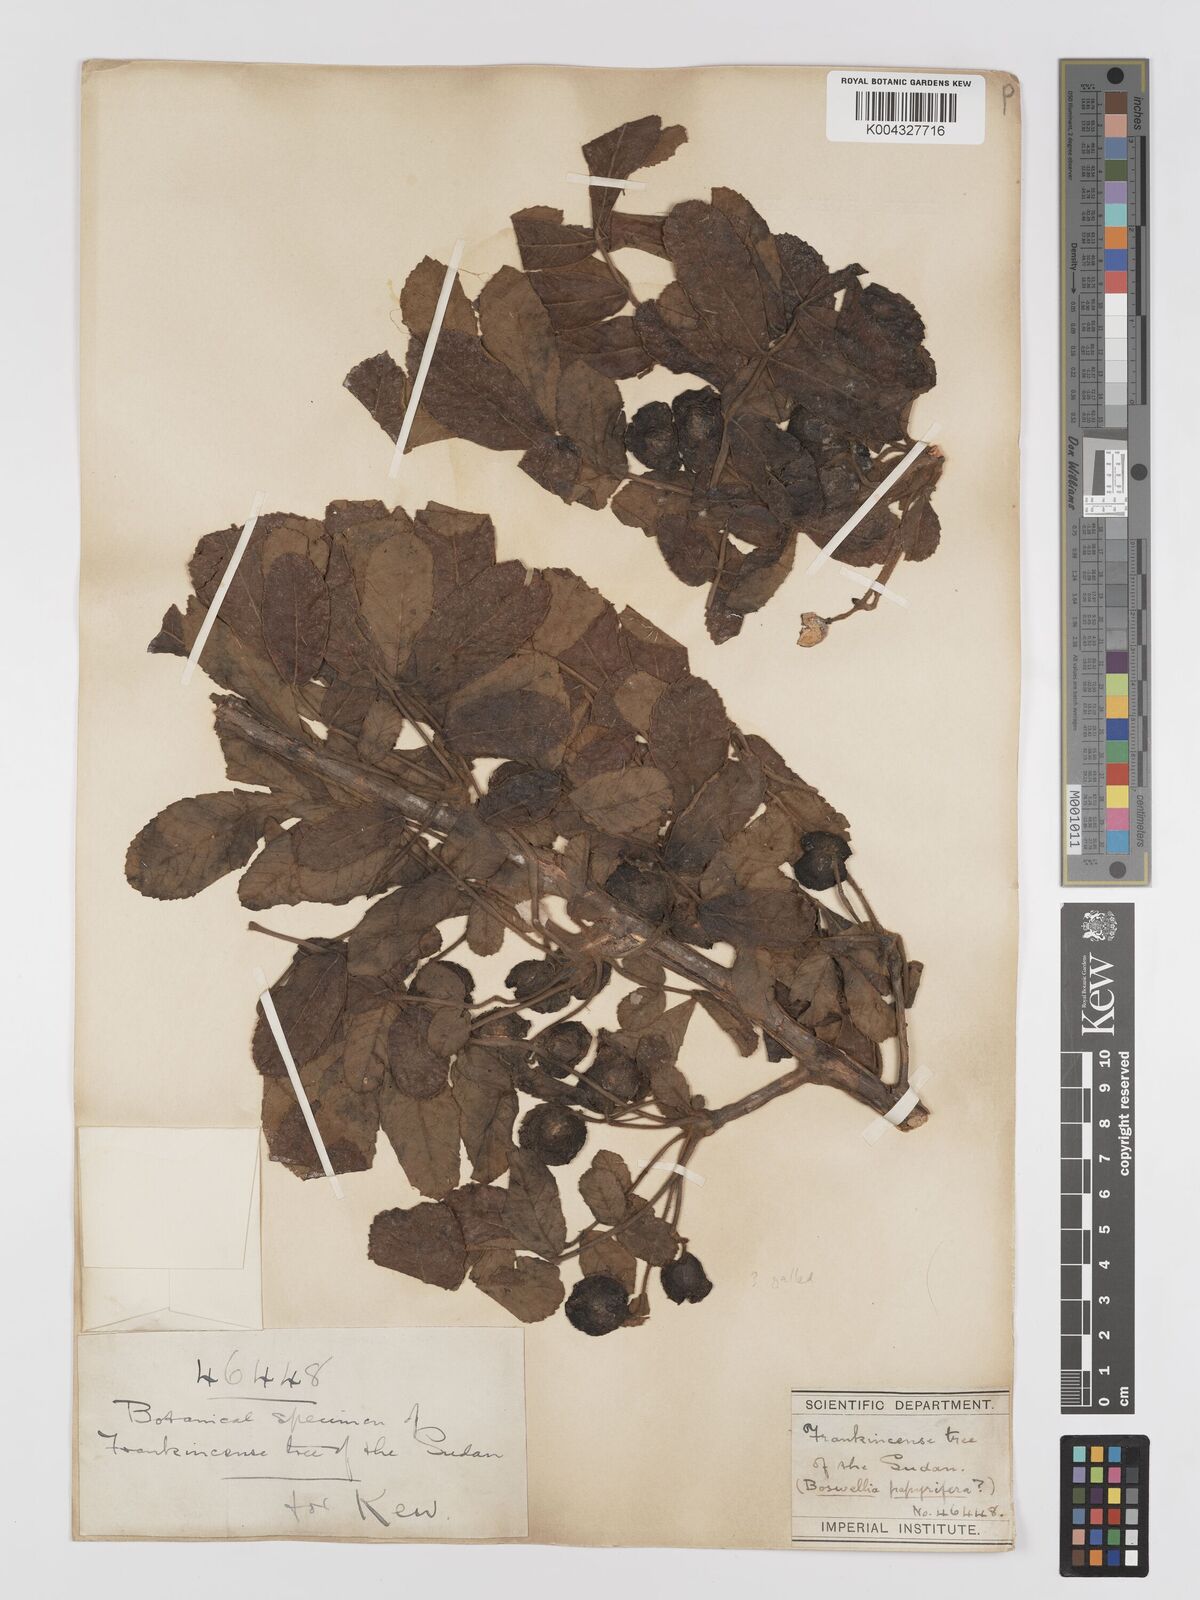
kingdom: Plantae
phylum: Tracheophyta
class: Magnoliopsida
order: Sapindales
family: Burseraceae
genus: Boswellia
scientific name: Boswellia papyrifera
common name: Sudanese frankincense
